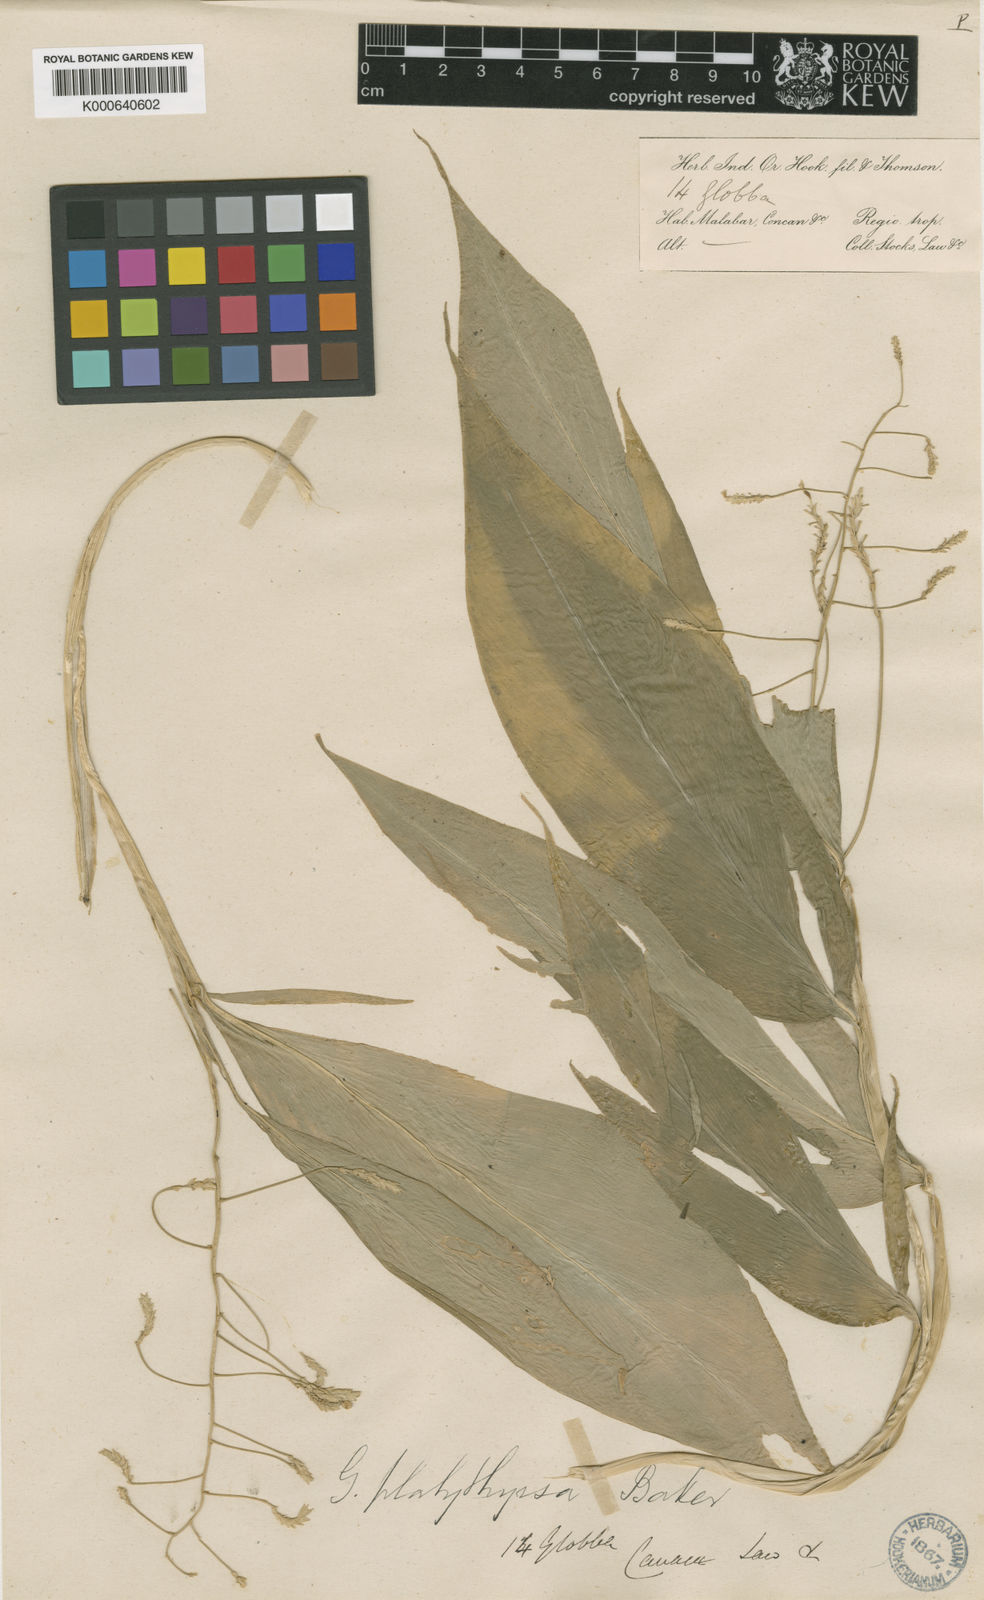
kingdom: Plantae
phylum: Tracheophyta
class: Liliopsida
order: Zingiberales
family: Zingiberaceae
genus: Globba
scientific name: Globba platystachya
